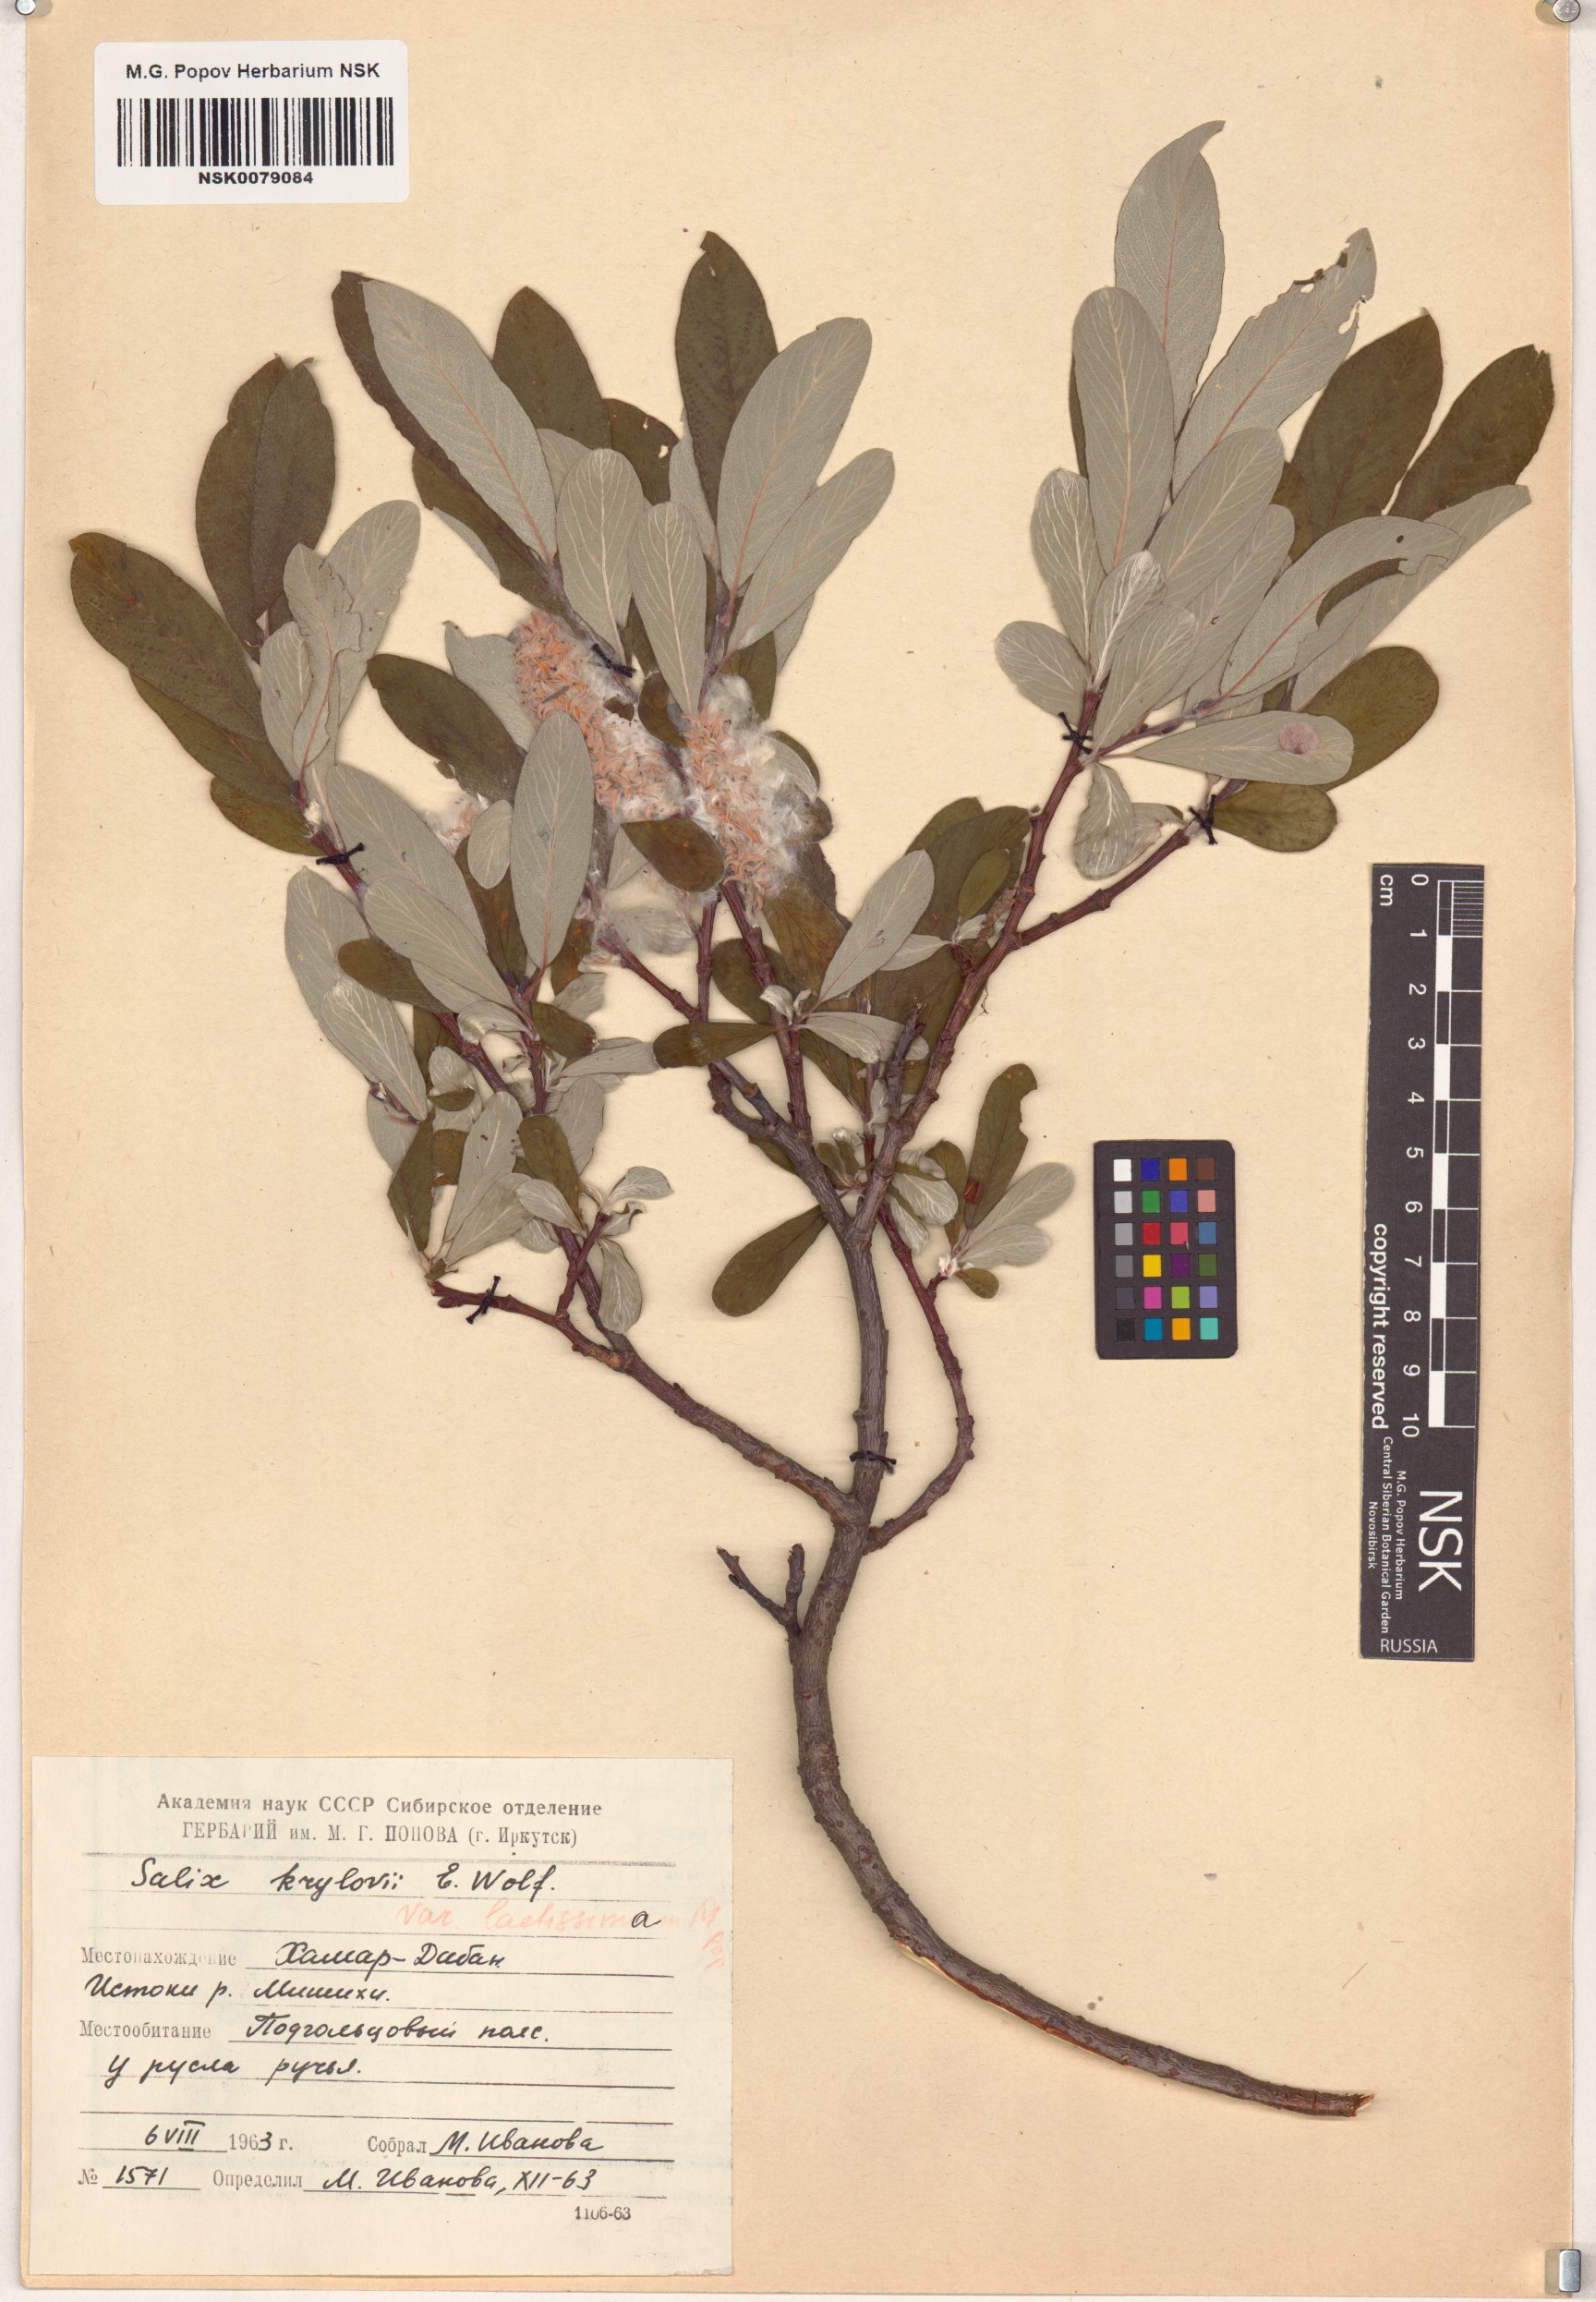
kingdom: Plantae
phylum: Tracheophyta
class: Magnoliopsida
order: Malpighiales
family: Salicaceae
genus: Salix
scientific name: Salix krylovii
